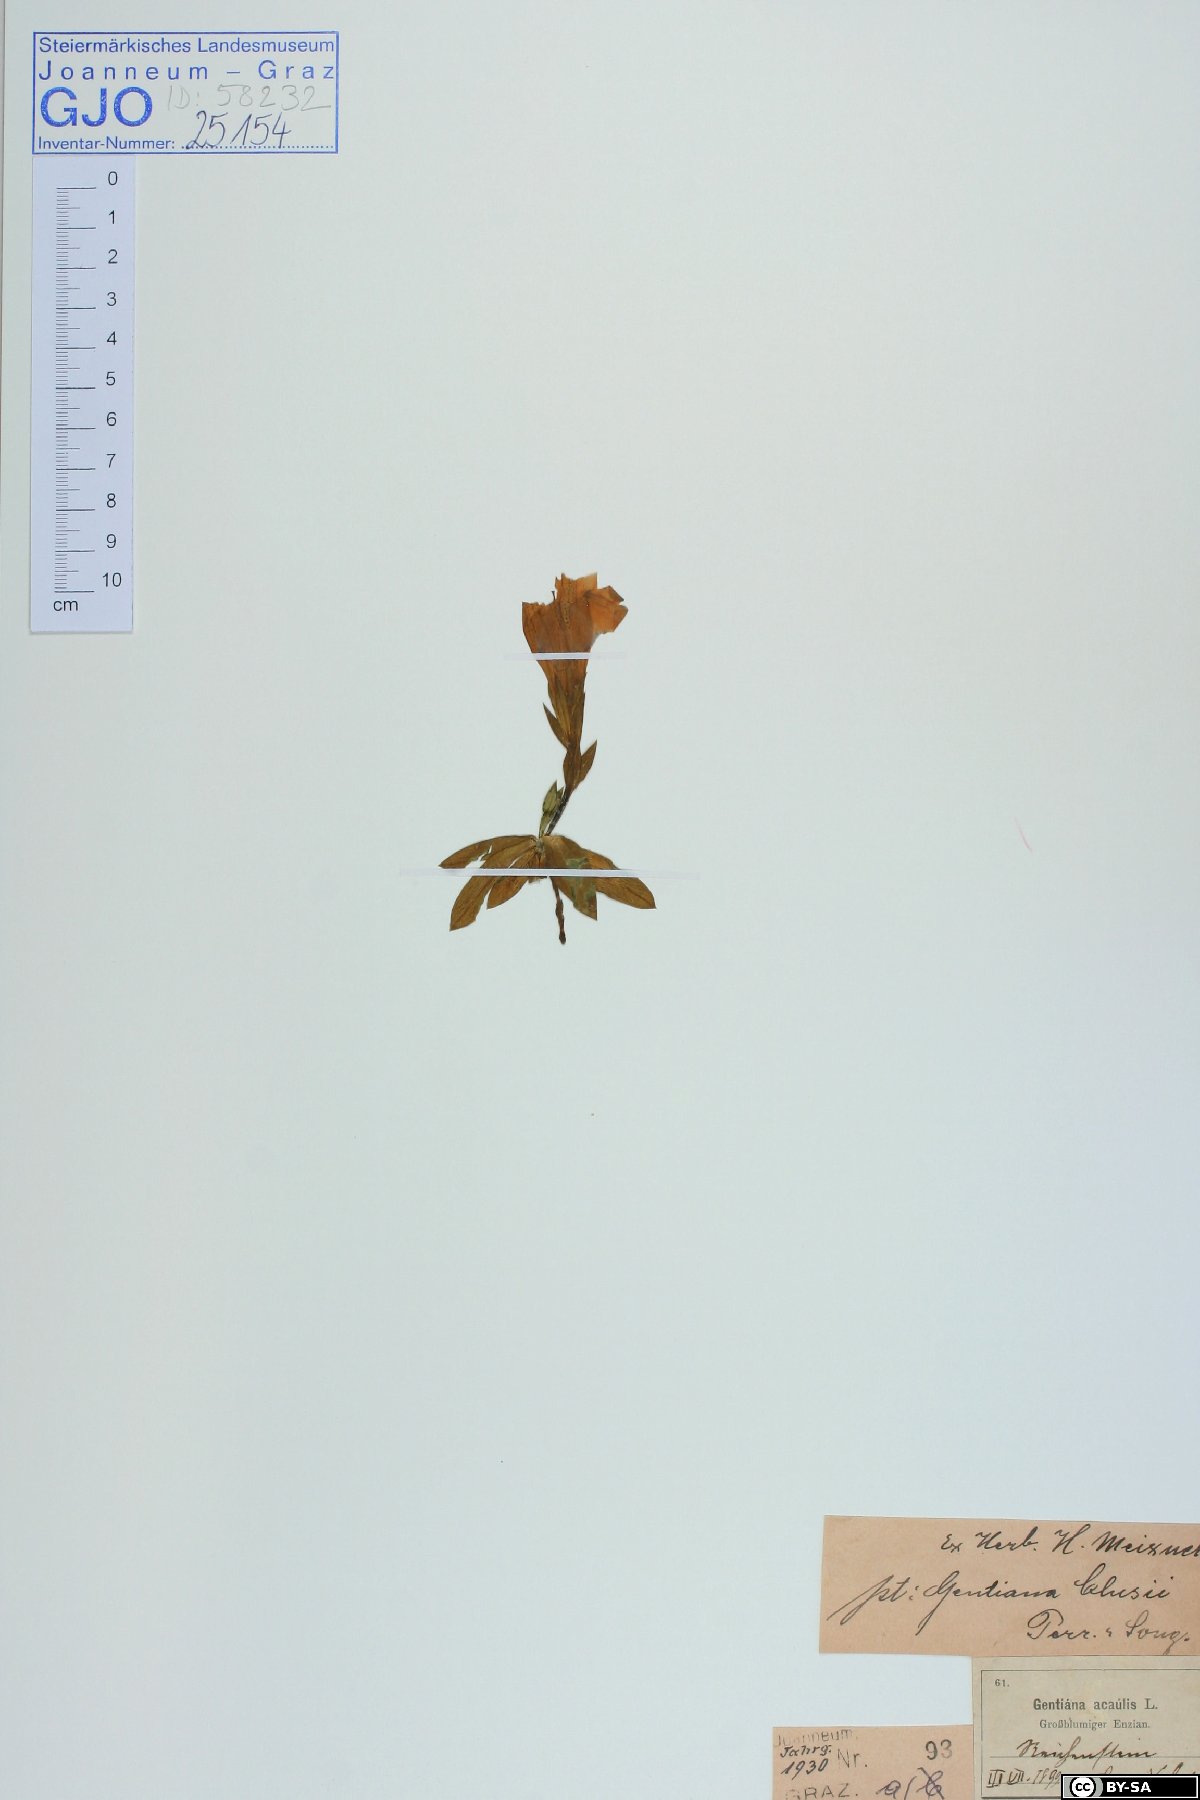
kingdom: Plantae
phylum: Tracheophyta
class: Magnoliopsida
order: Gentianales
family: Gentianaceae
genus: Gentiana
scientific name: Gentiana clusii
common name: Trumpet gentian
